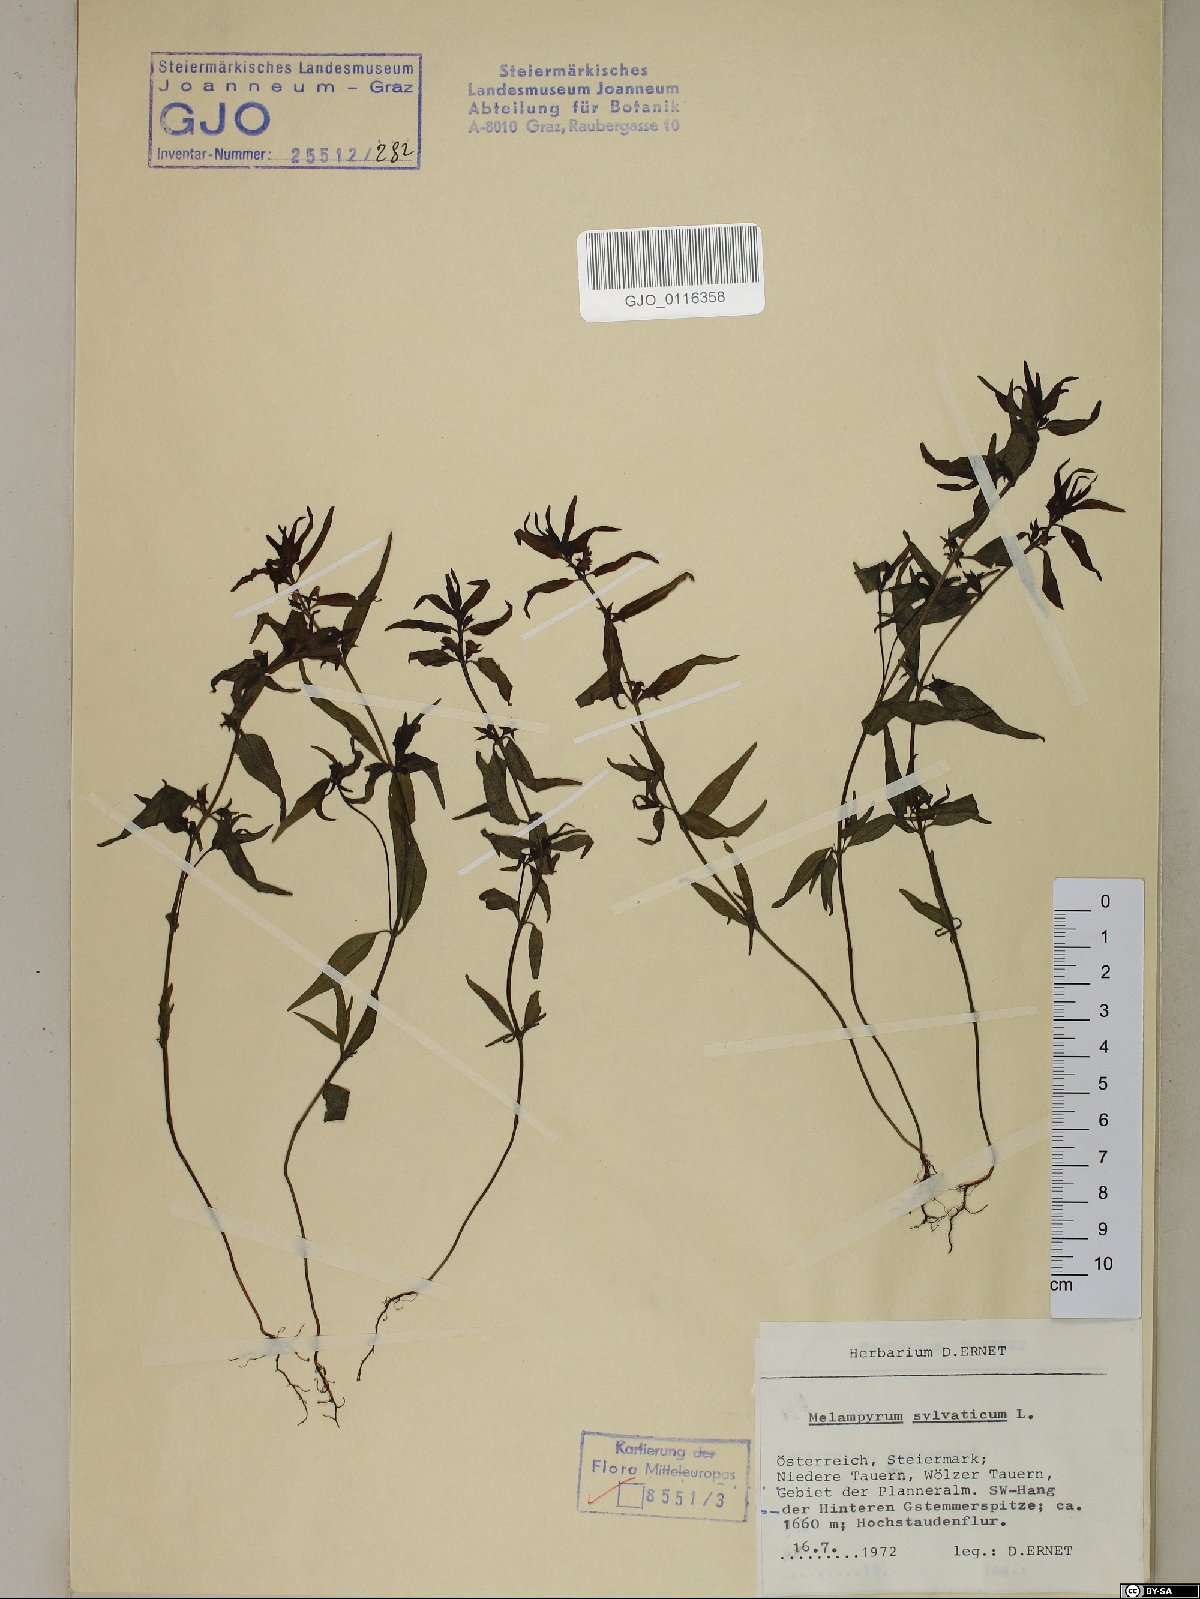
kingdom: Plantae
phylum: Tracheophyta
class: Magnoliopsida
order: Lamiales
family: Orobanchaceae
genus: Melampyrum
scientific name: Melampyrum sylvaticum
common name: Small cow-wheat
